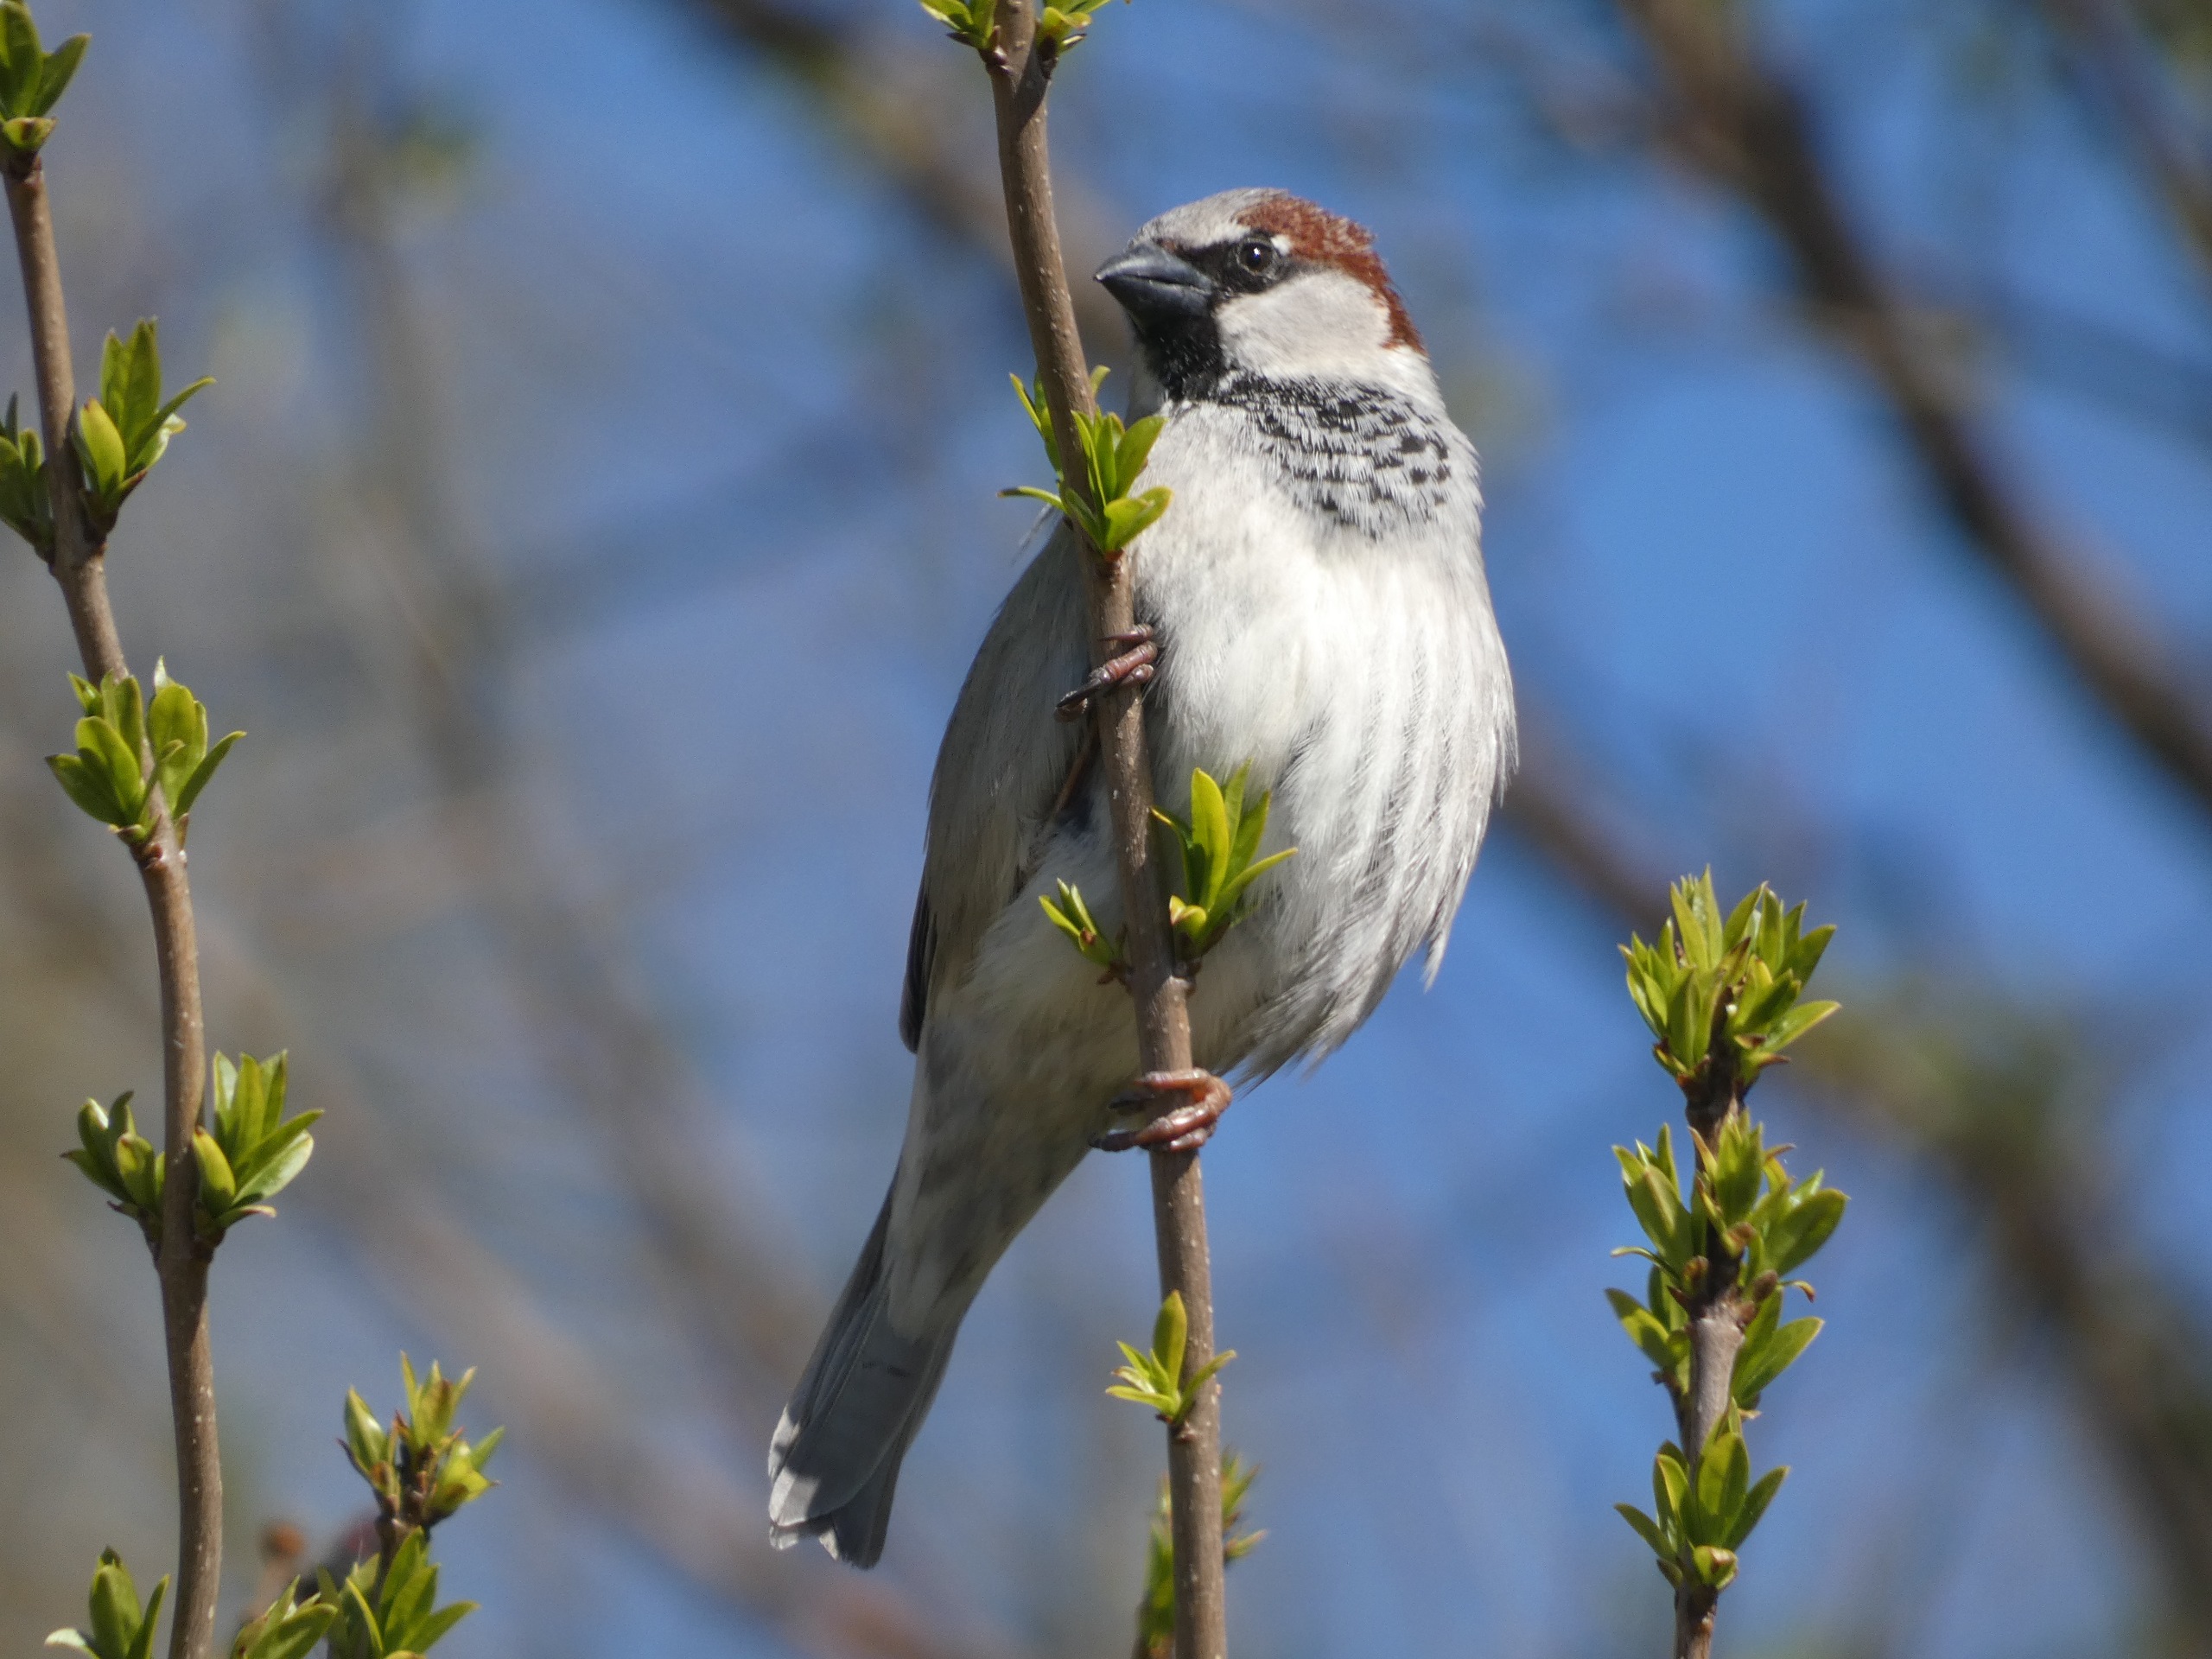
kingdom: Animalia
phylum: Chordata
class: Aves
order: Passeriformes
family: Passeridae
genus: Passer
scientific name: Passer domesticus
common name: Gråspurv
